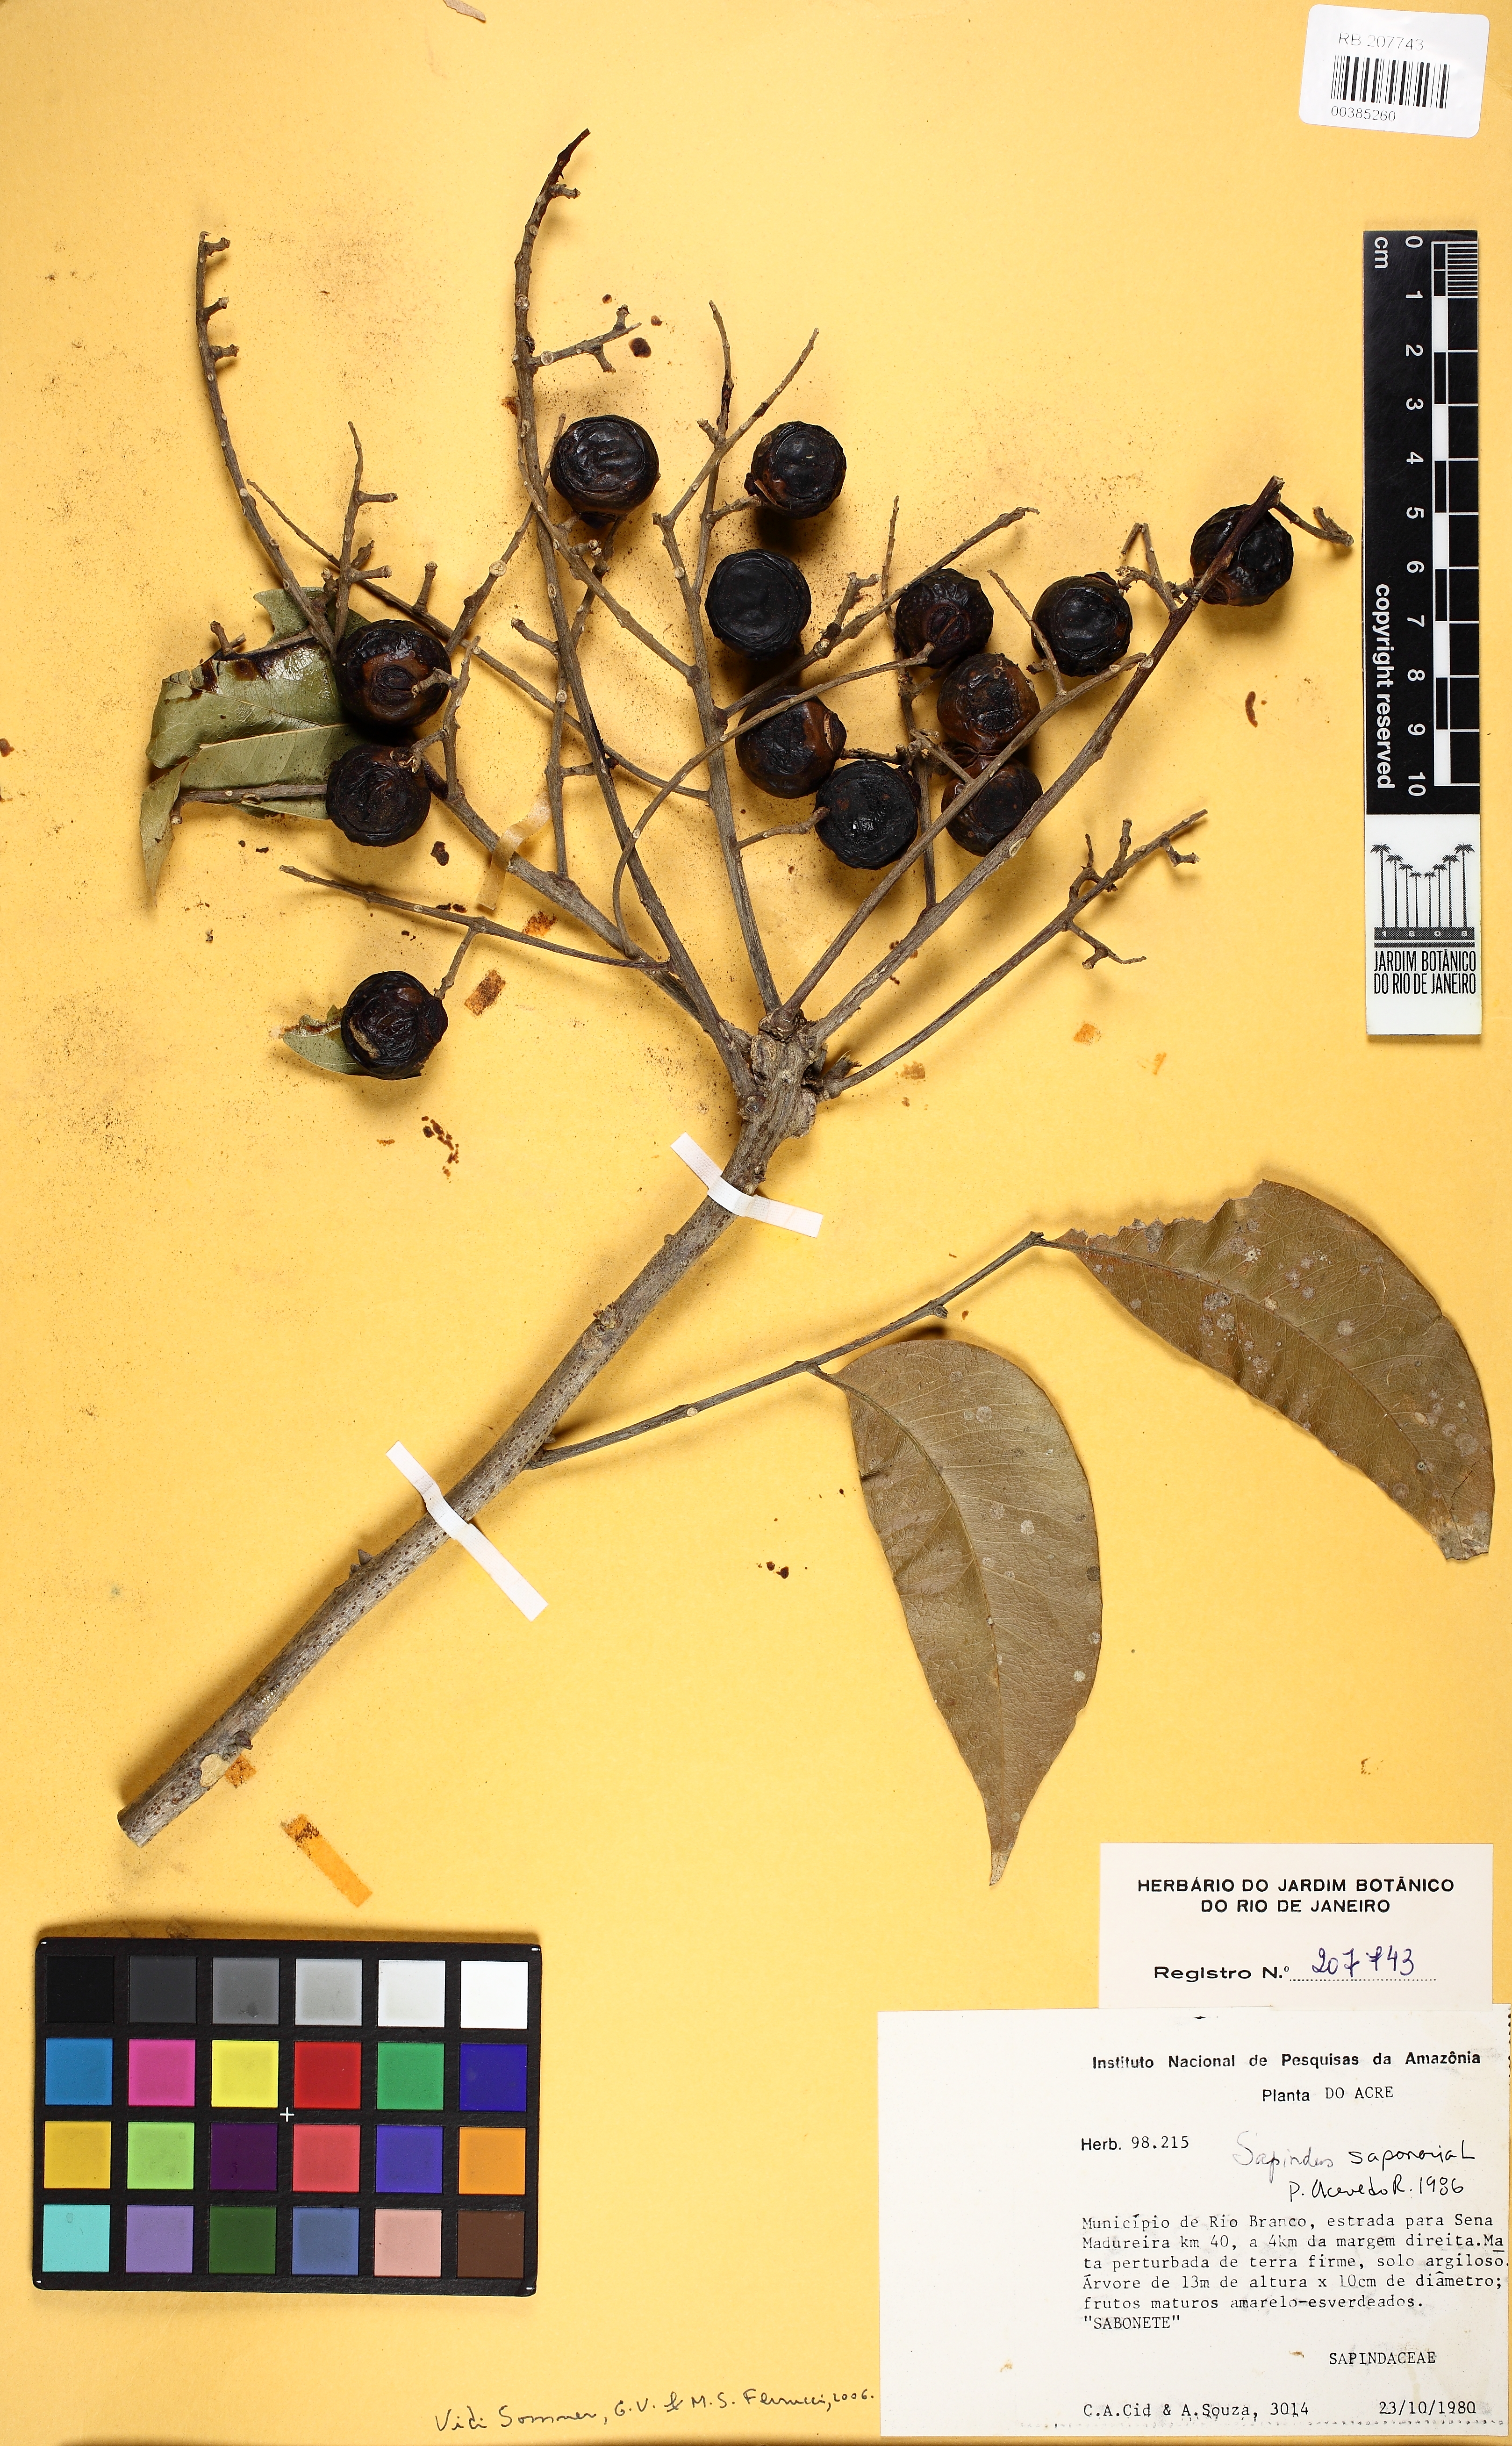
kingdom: Plantae
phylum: Tracheophyta
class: Magnoliopsida
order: Sapindales
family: Sapindaceae
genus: Sapindus
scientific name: Sapindus saponaria
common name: Wingleaf soapberry
